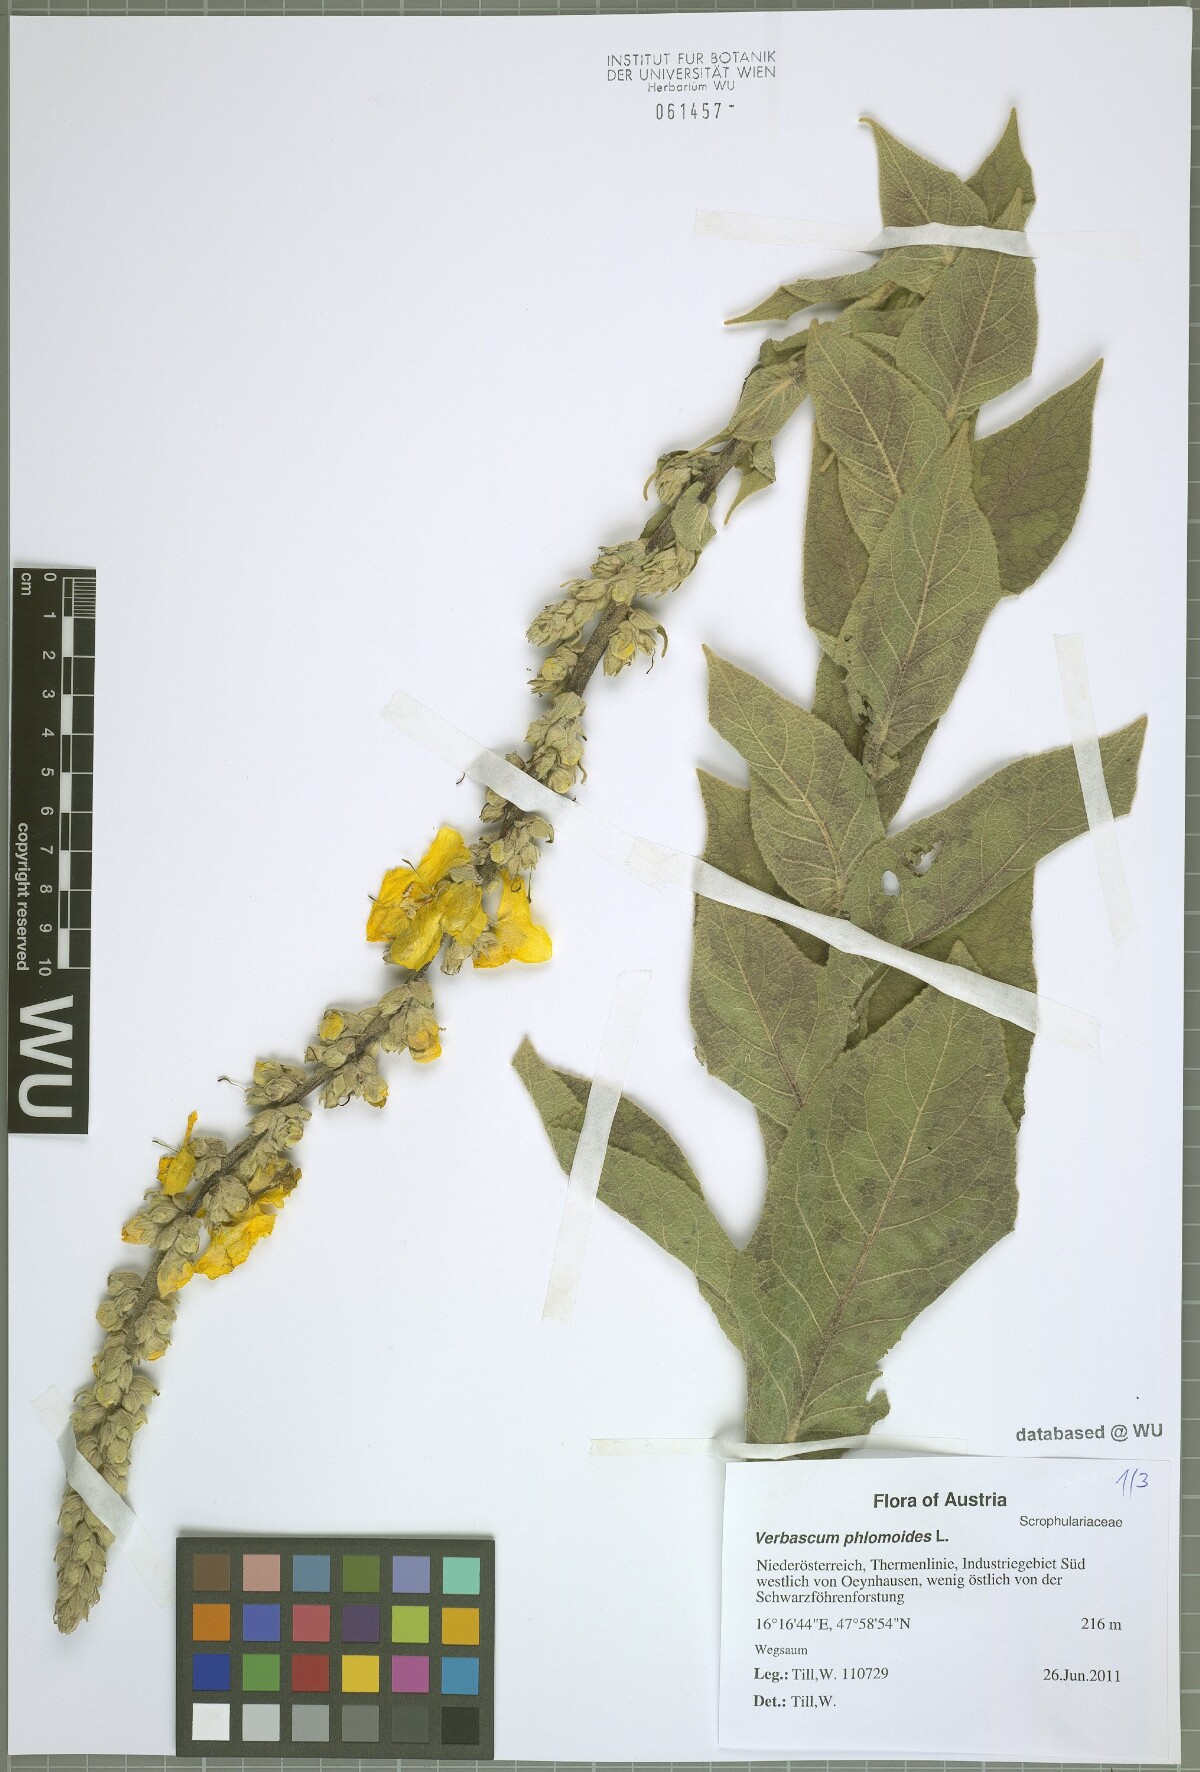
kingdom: Plantae
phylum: Tracheophyta
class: Magnoliopsida
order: Lamiales
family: Scrophulariaceae
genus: Verbascum
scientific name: Verbascum phlomoides
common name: Orange mullein
